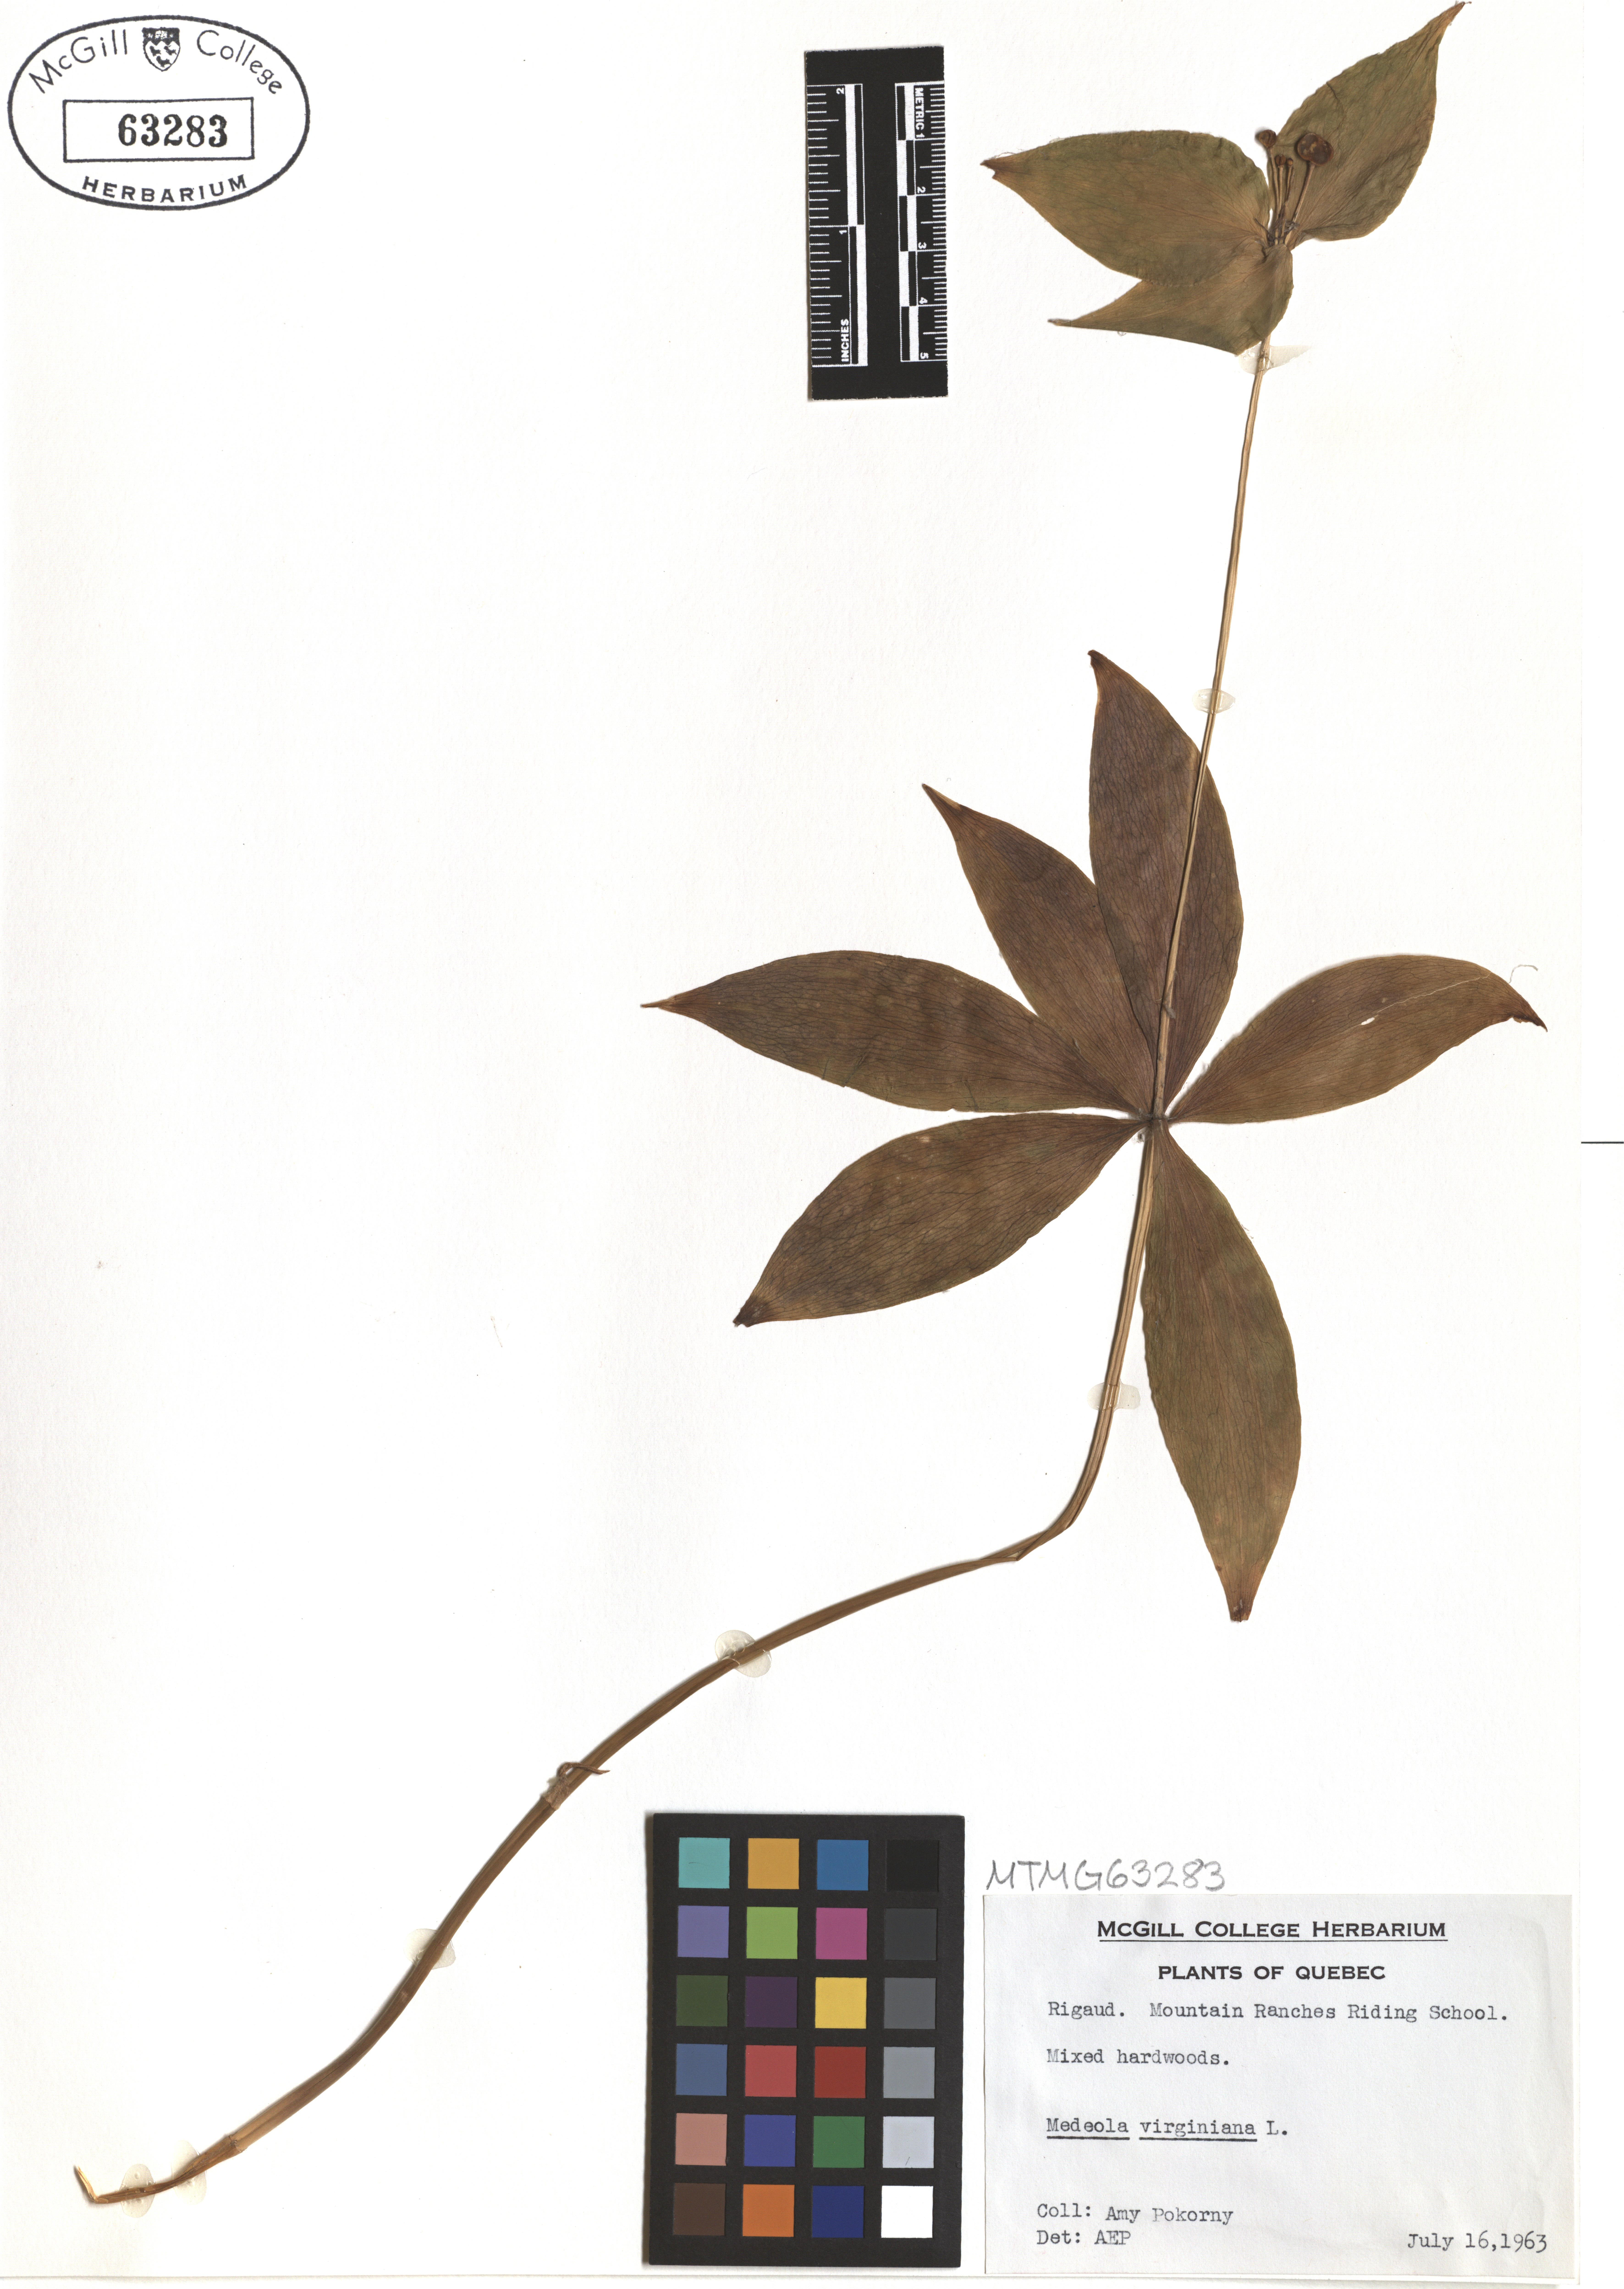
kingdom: Plantae
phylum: Tracheophyta
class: Liliopsida
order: Liliales
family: Liliaceae
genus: Medeola
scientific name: Medeola virginiana
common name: Indian cucumber-root
